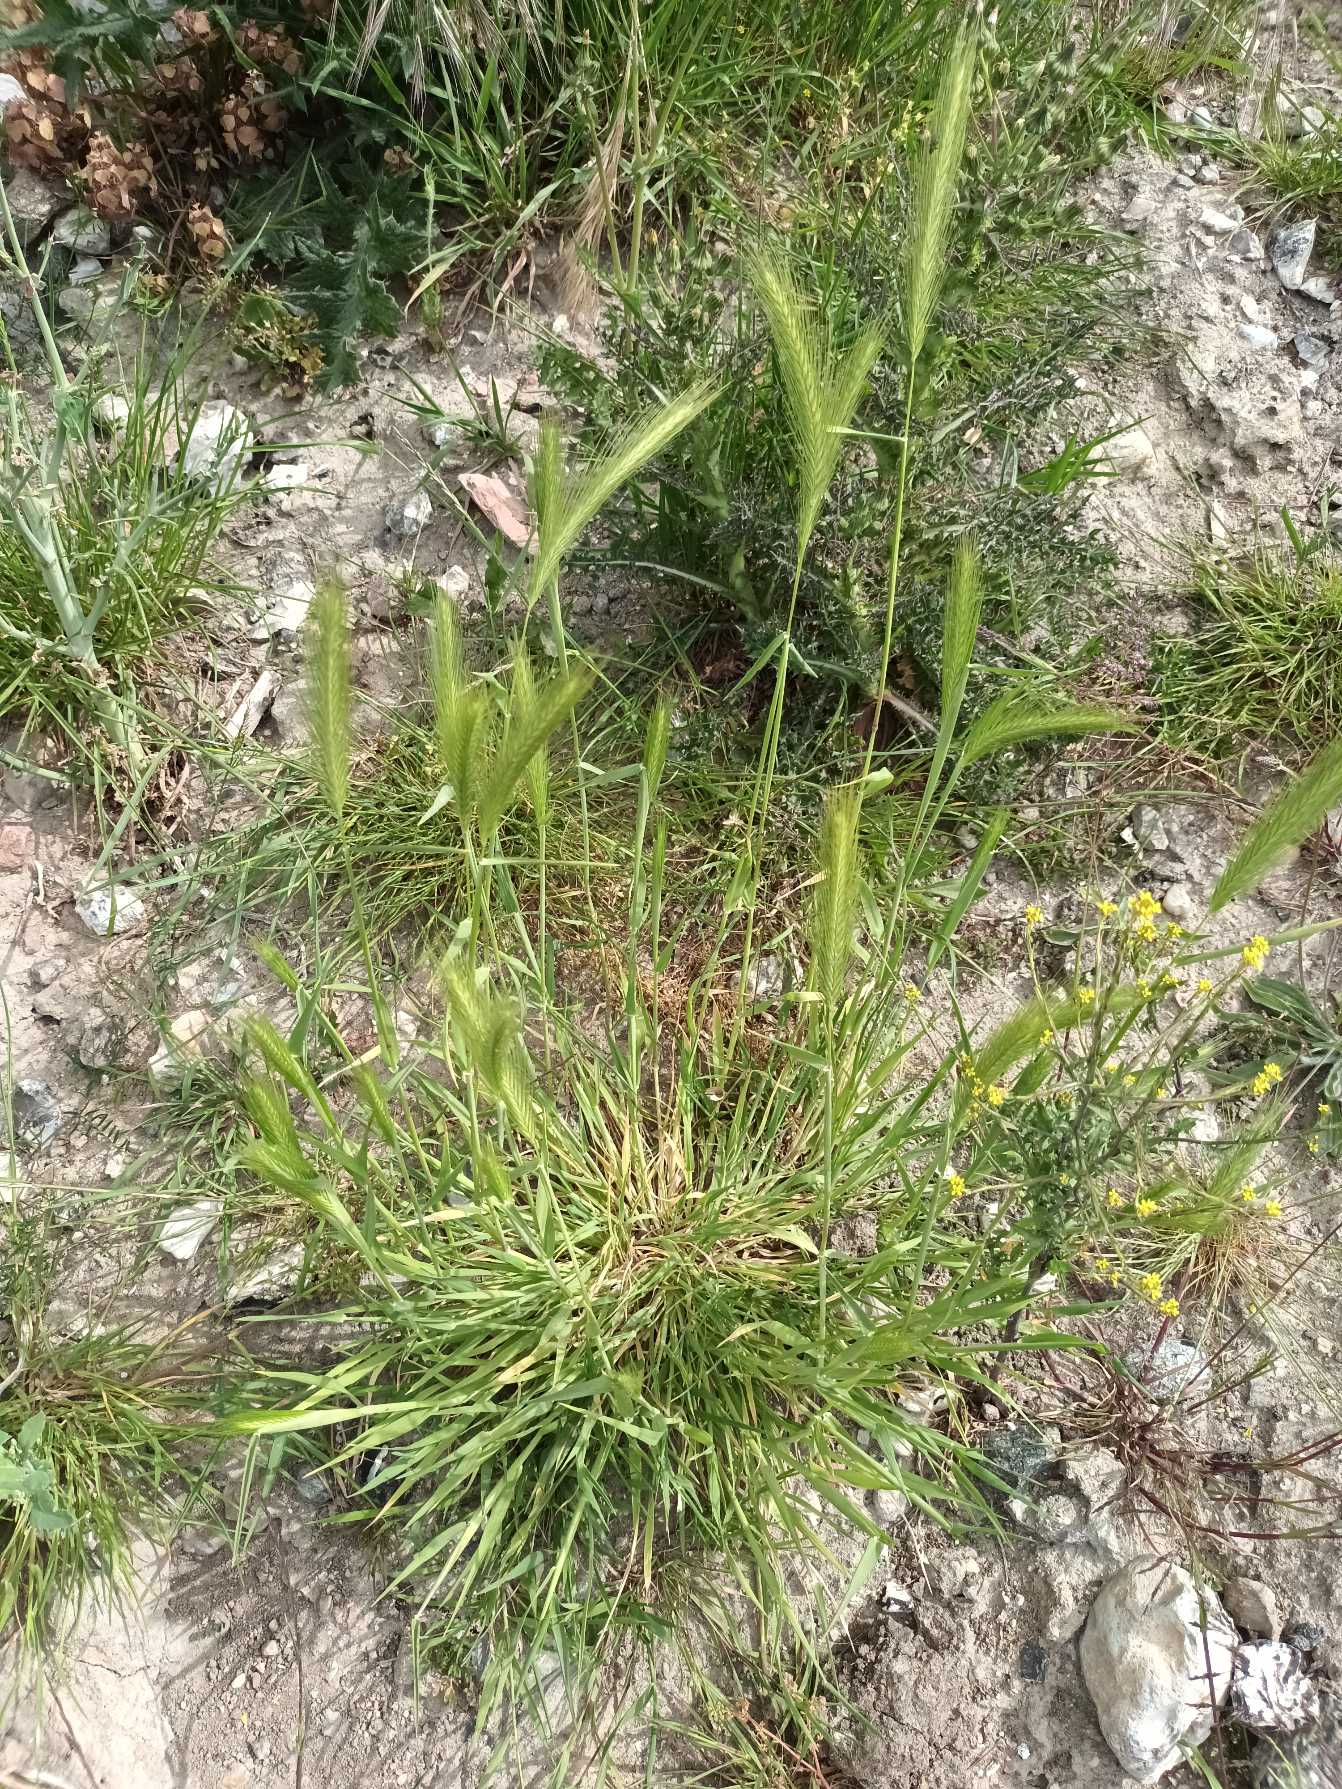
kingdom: Plantae
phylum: Tracheophyta
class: Liliopsida
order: Poales
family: Poaceae
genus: Hordeum
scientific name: Hordeum murinum
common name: Gold byg
